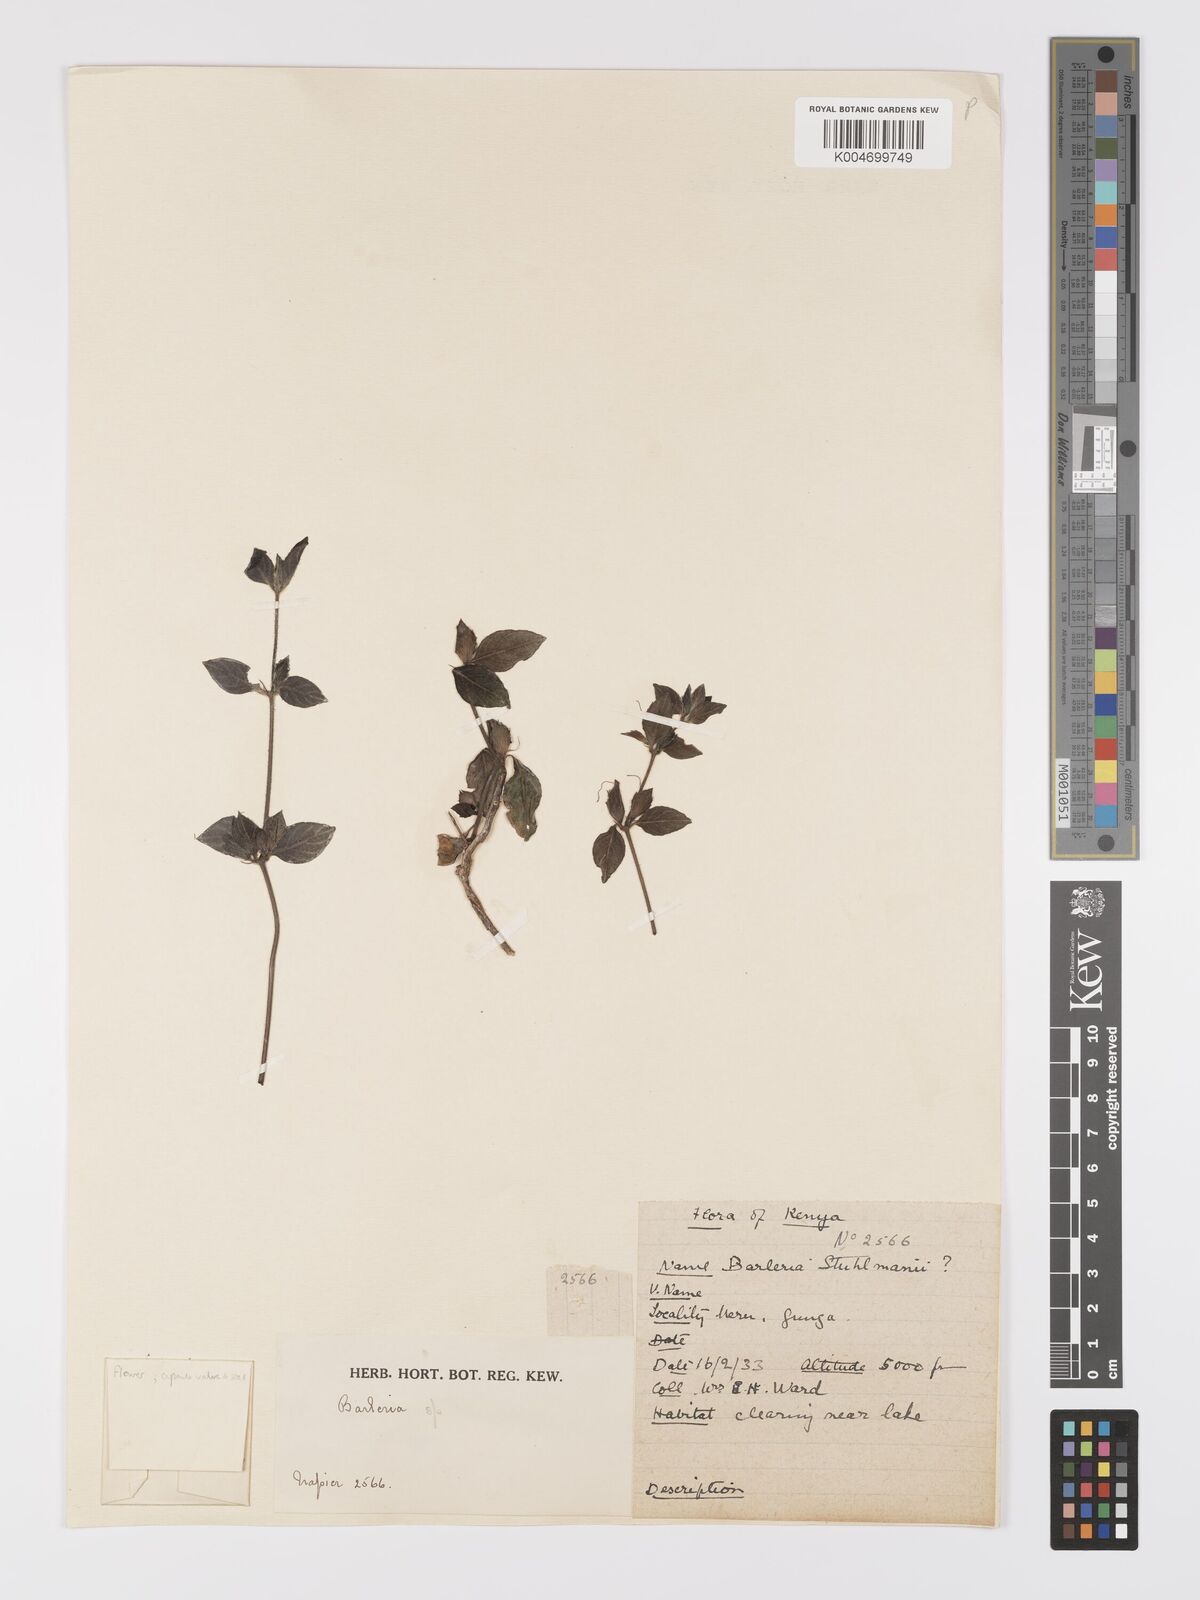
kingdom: Plantae
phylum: Tracheophyta
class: Magnoliopsida
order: Lamiales
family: Acanthaceae
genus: Barleria
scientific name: Barleria ventricosa
